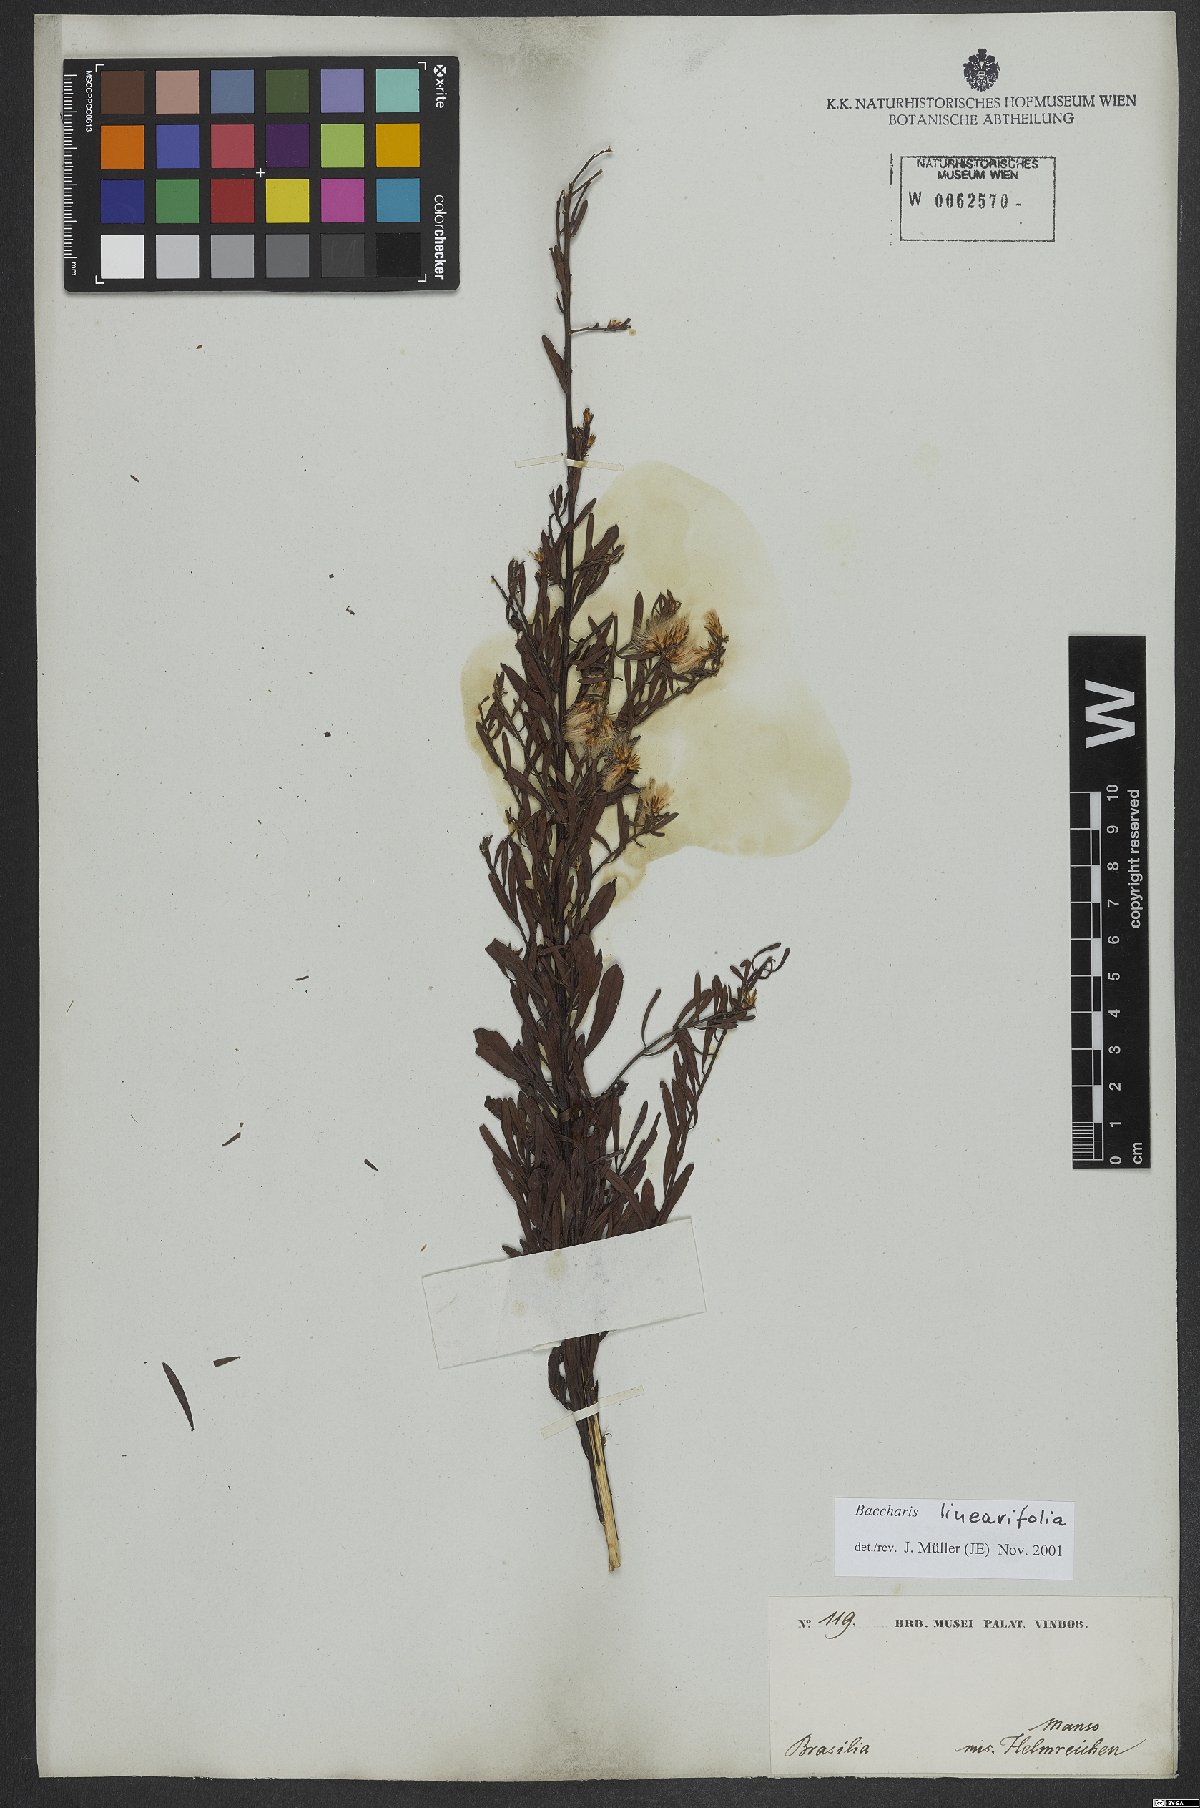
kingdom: Plantae
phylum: Tracheophyta
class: Magnoliopsida
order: Asterales
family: Asteraceae
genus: Baccharis
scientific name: Baccharis linearifolia
